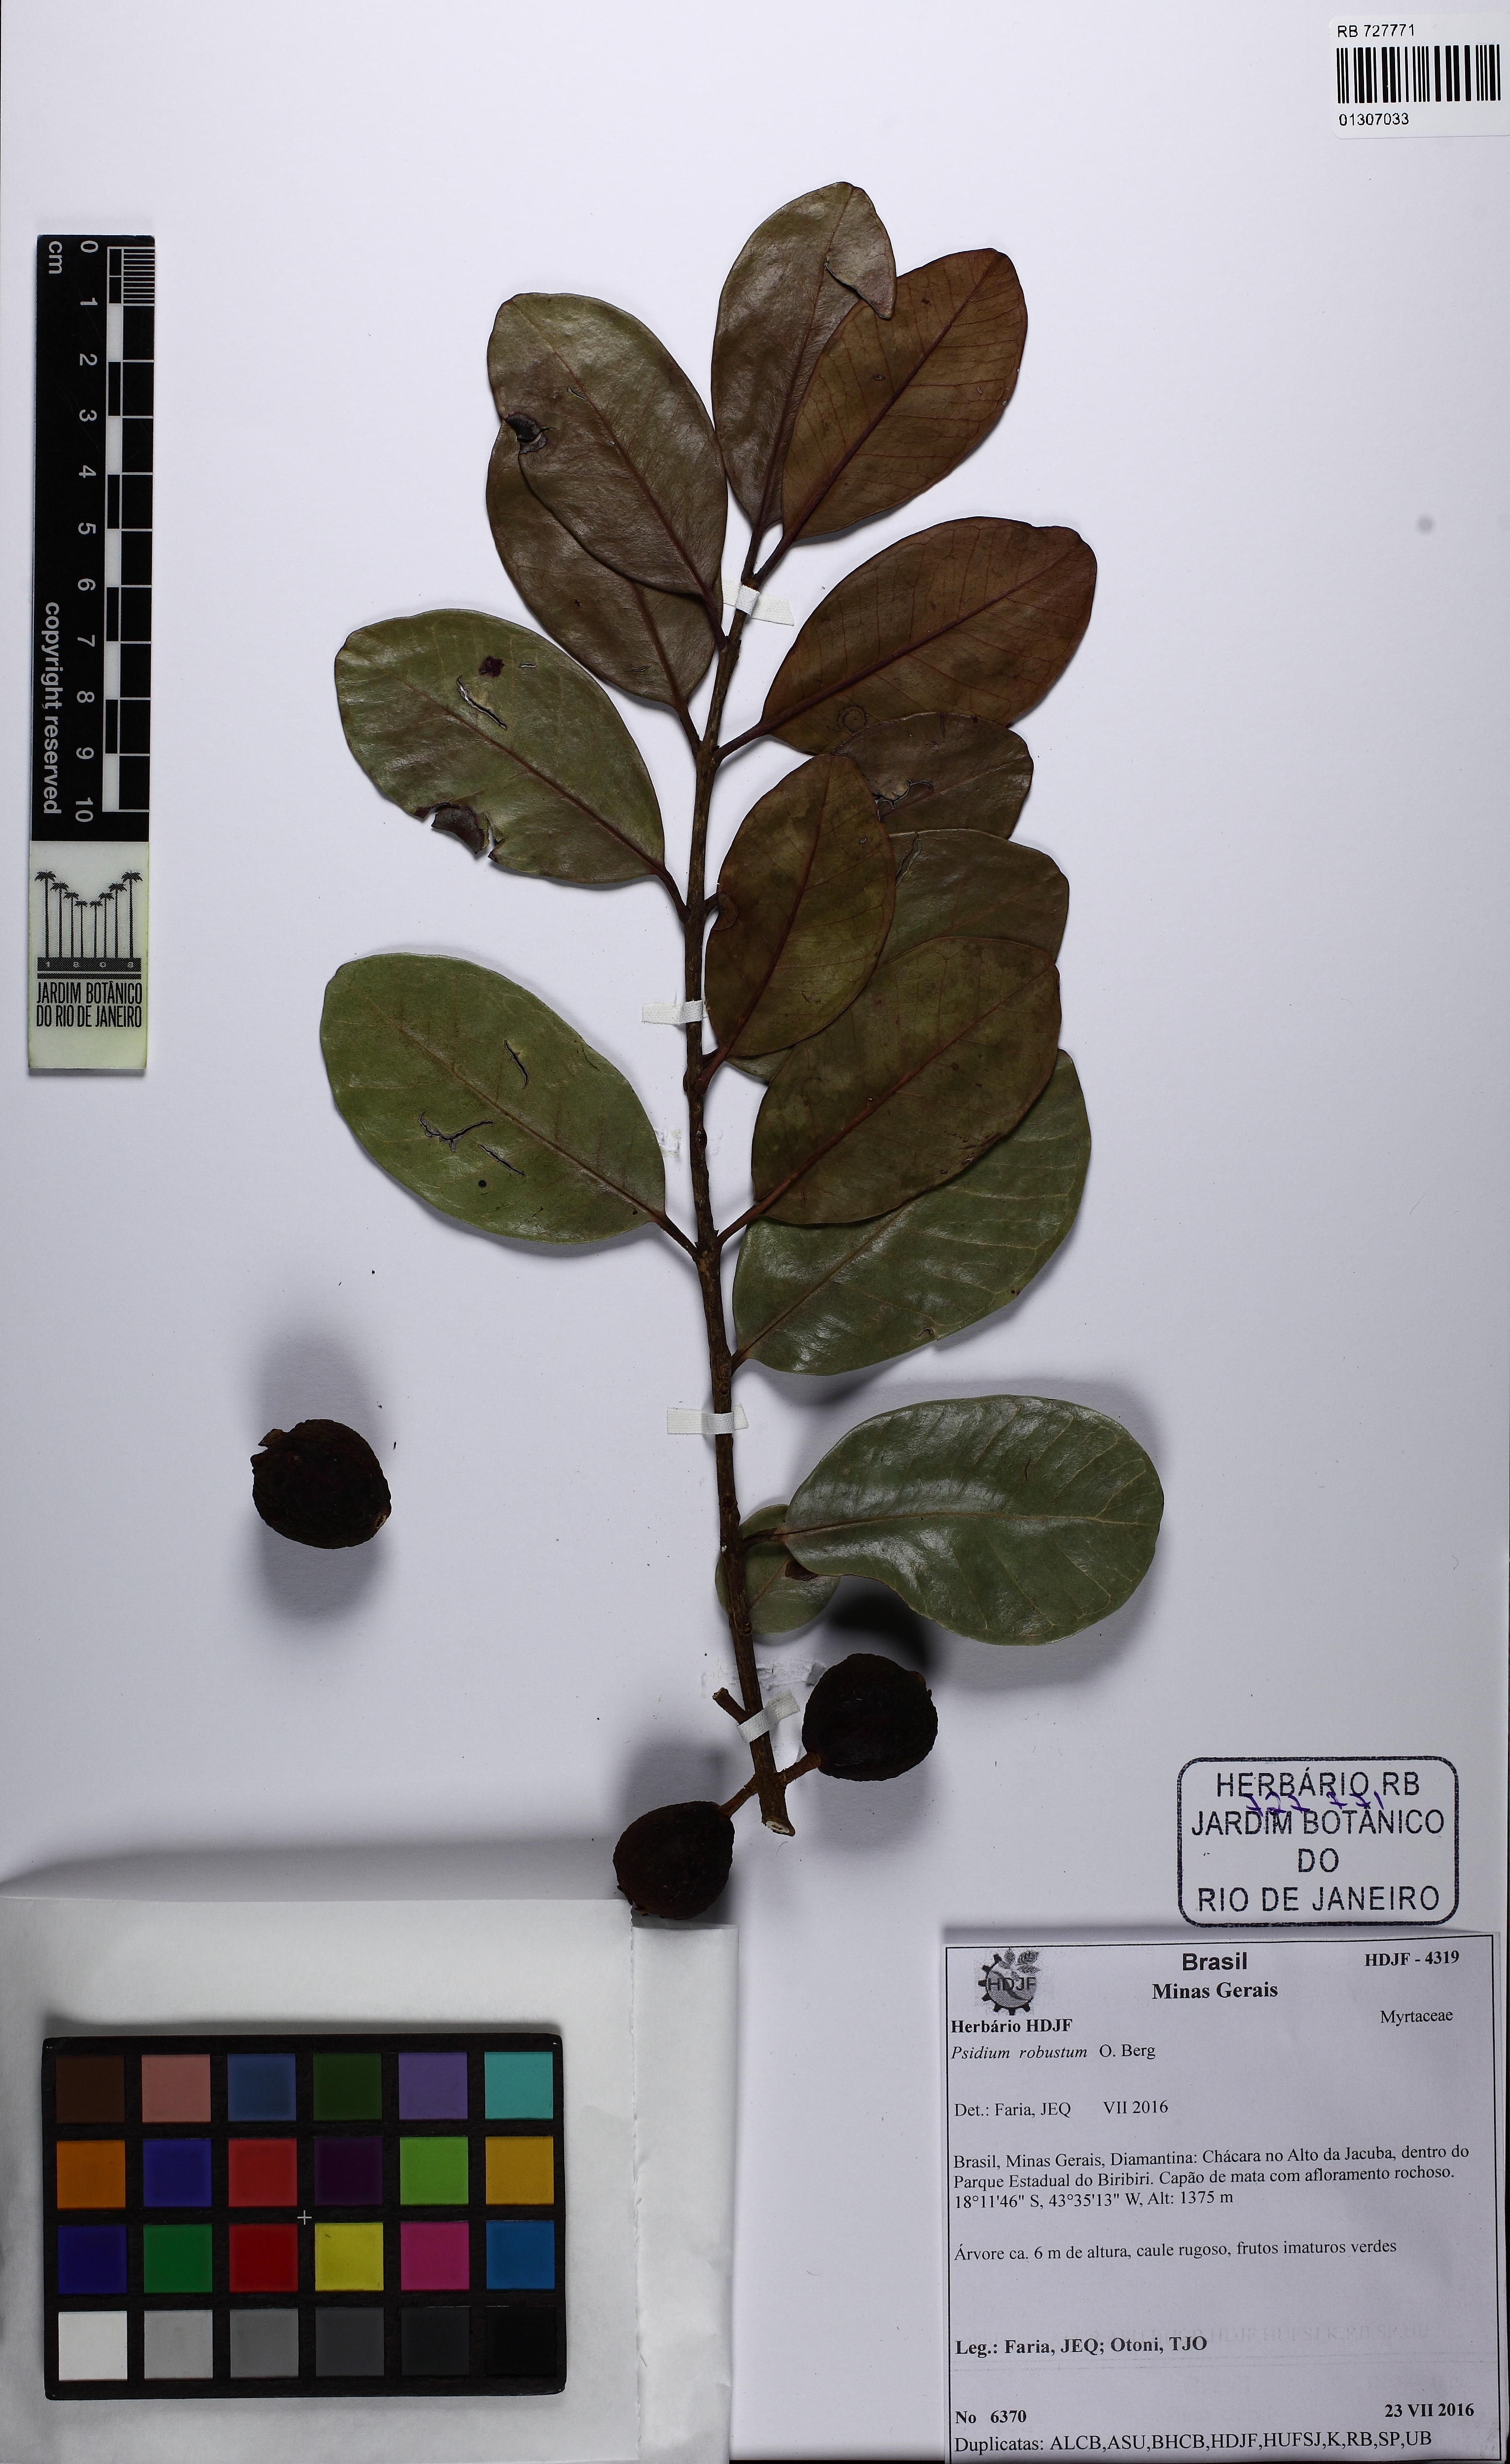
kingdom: Plantae
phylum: Tracheophyta
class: Magnoliopsida
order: Myrtales
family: Myrtaceae
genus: Psidium
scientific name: Psidium robustum
